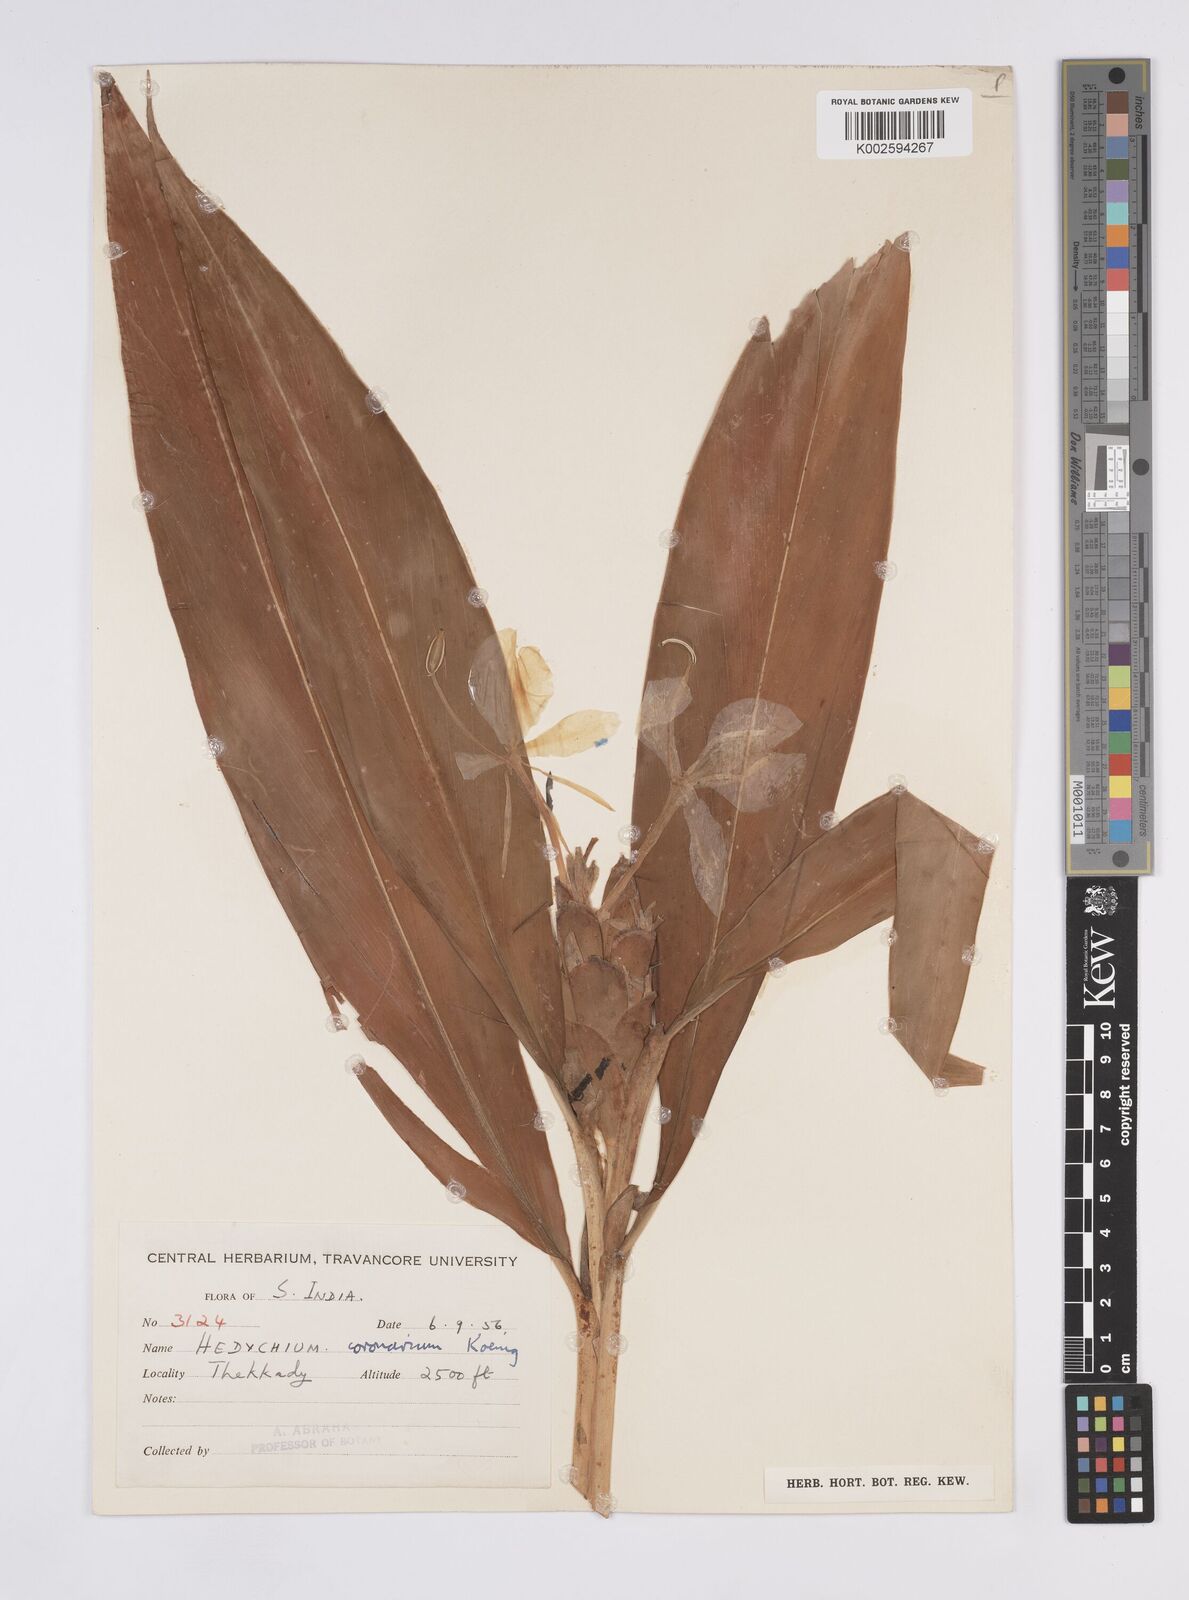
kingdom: Plantae
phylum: Tracheophyta
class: Liliopsida
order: Zingiberales
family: Zingiberaceae
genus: Hedychium
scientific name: Hedychium coronarium
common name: White garland-lily
